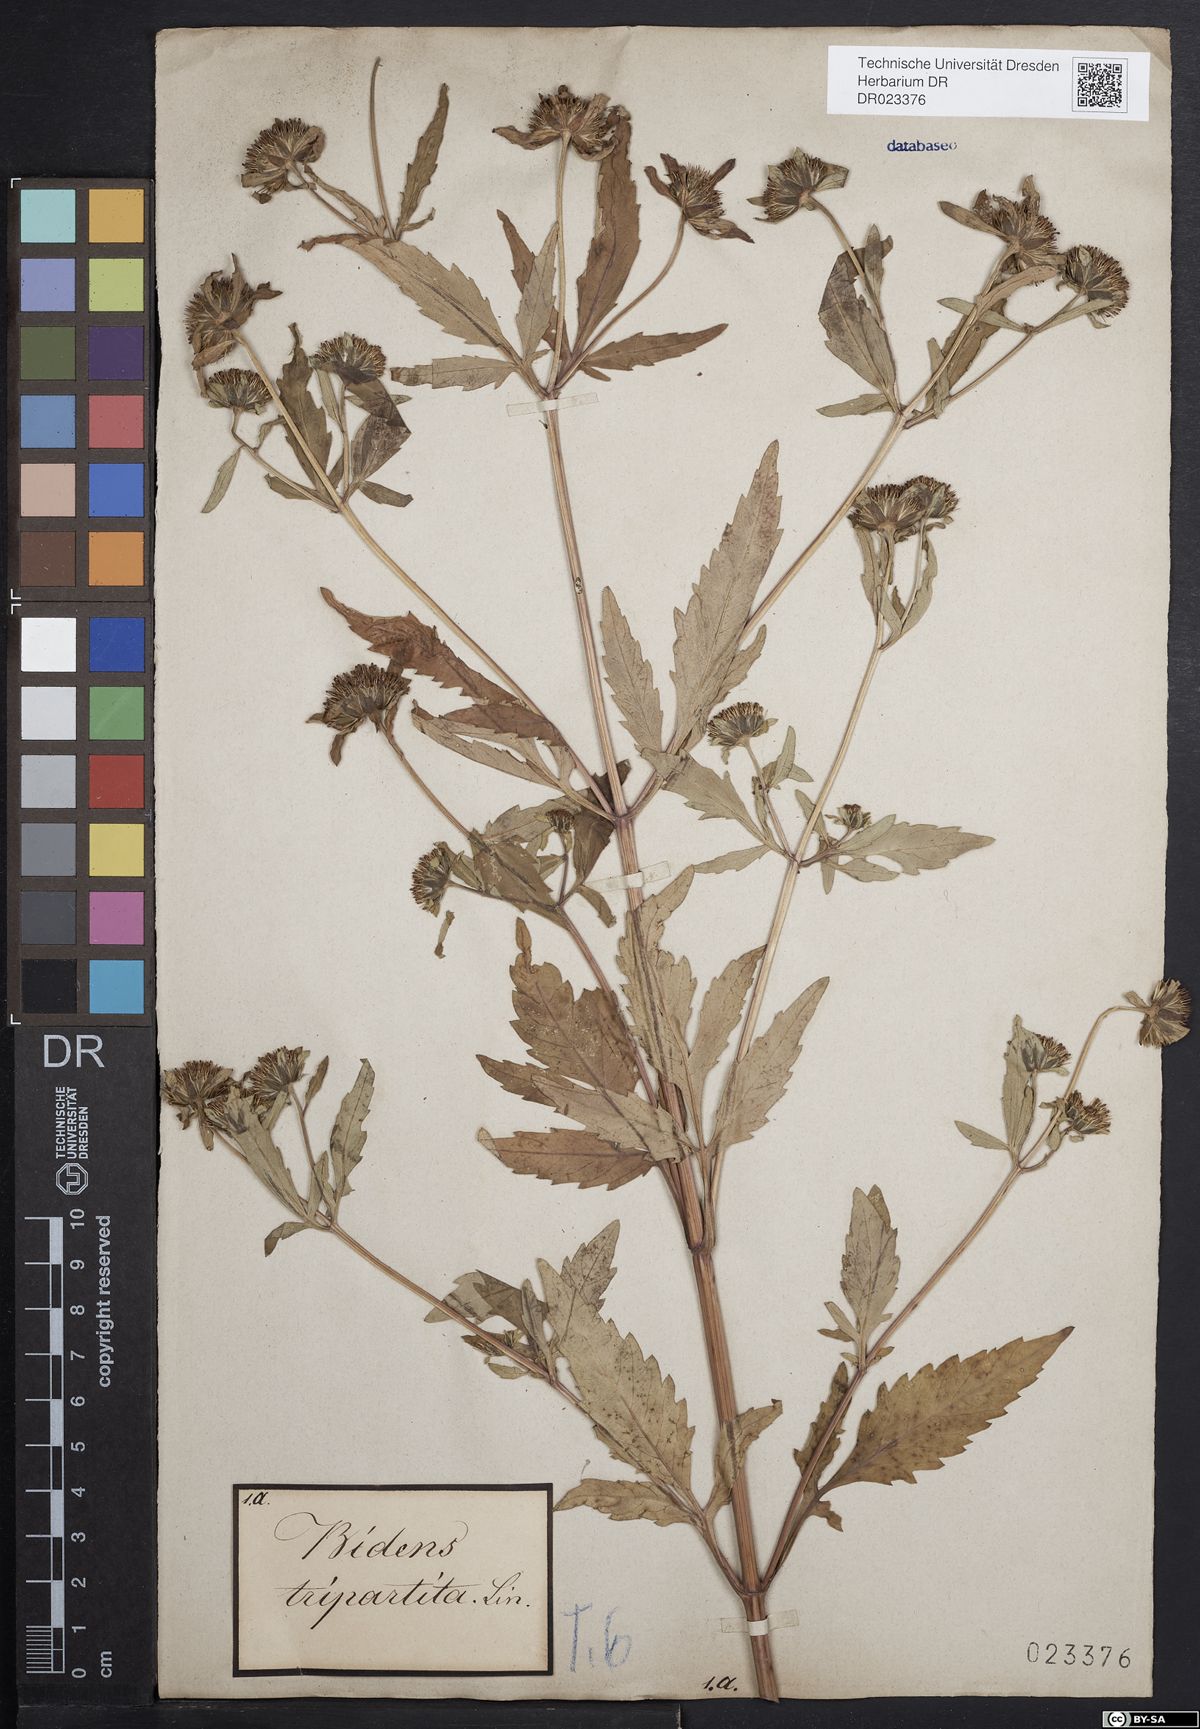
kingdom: Plantae
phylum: Tracheophyta
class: Magnoliopsida
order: Asterales
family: Asteraceae
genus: Bidens
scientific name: Bidens tripartita
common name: Trifid bur-marigold
